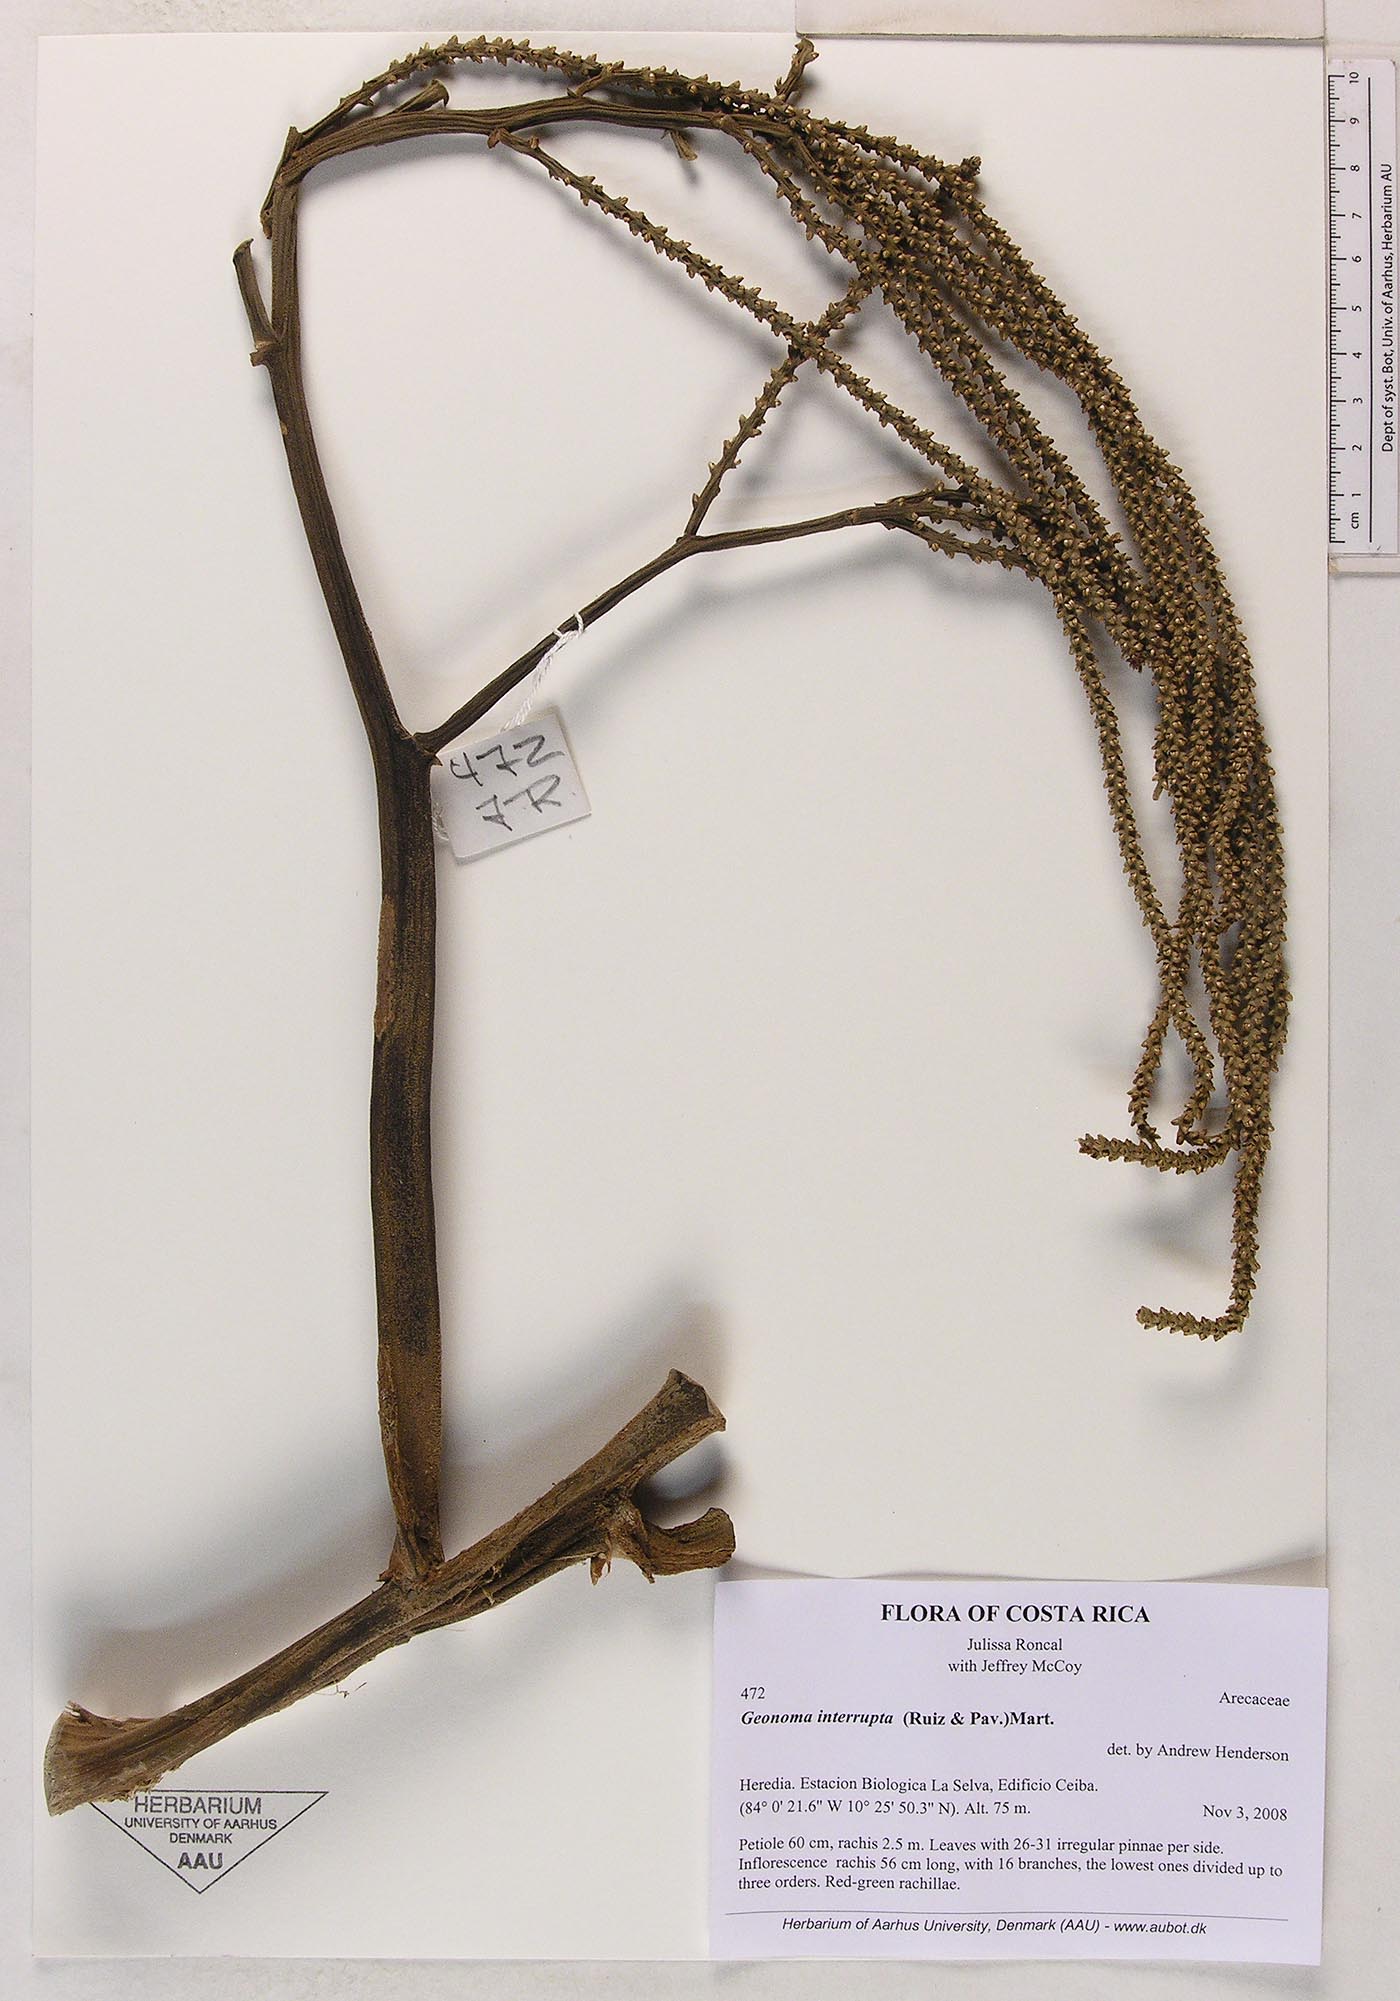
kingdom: Plantae
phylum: Tracheophyta
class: Liliopsida
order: Arecales
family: Arecaceae
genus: Geonoma
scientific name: Geonoma interrupta
